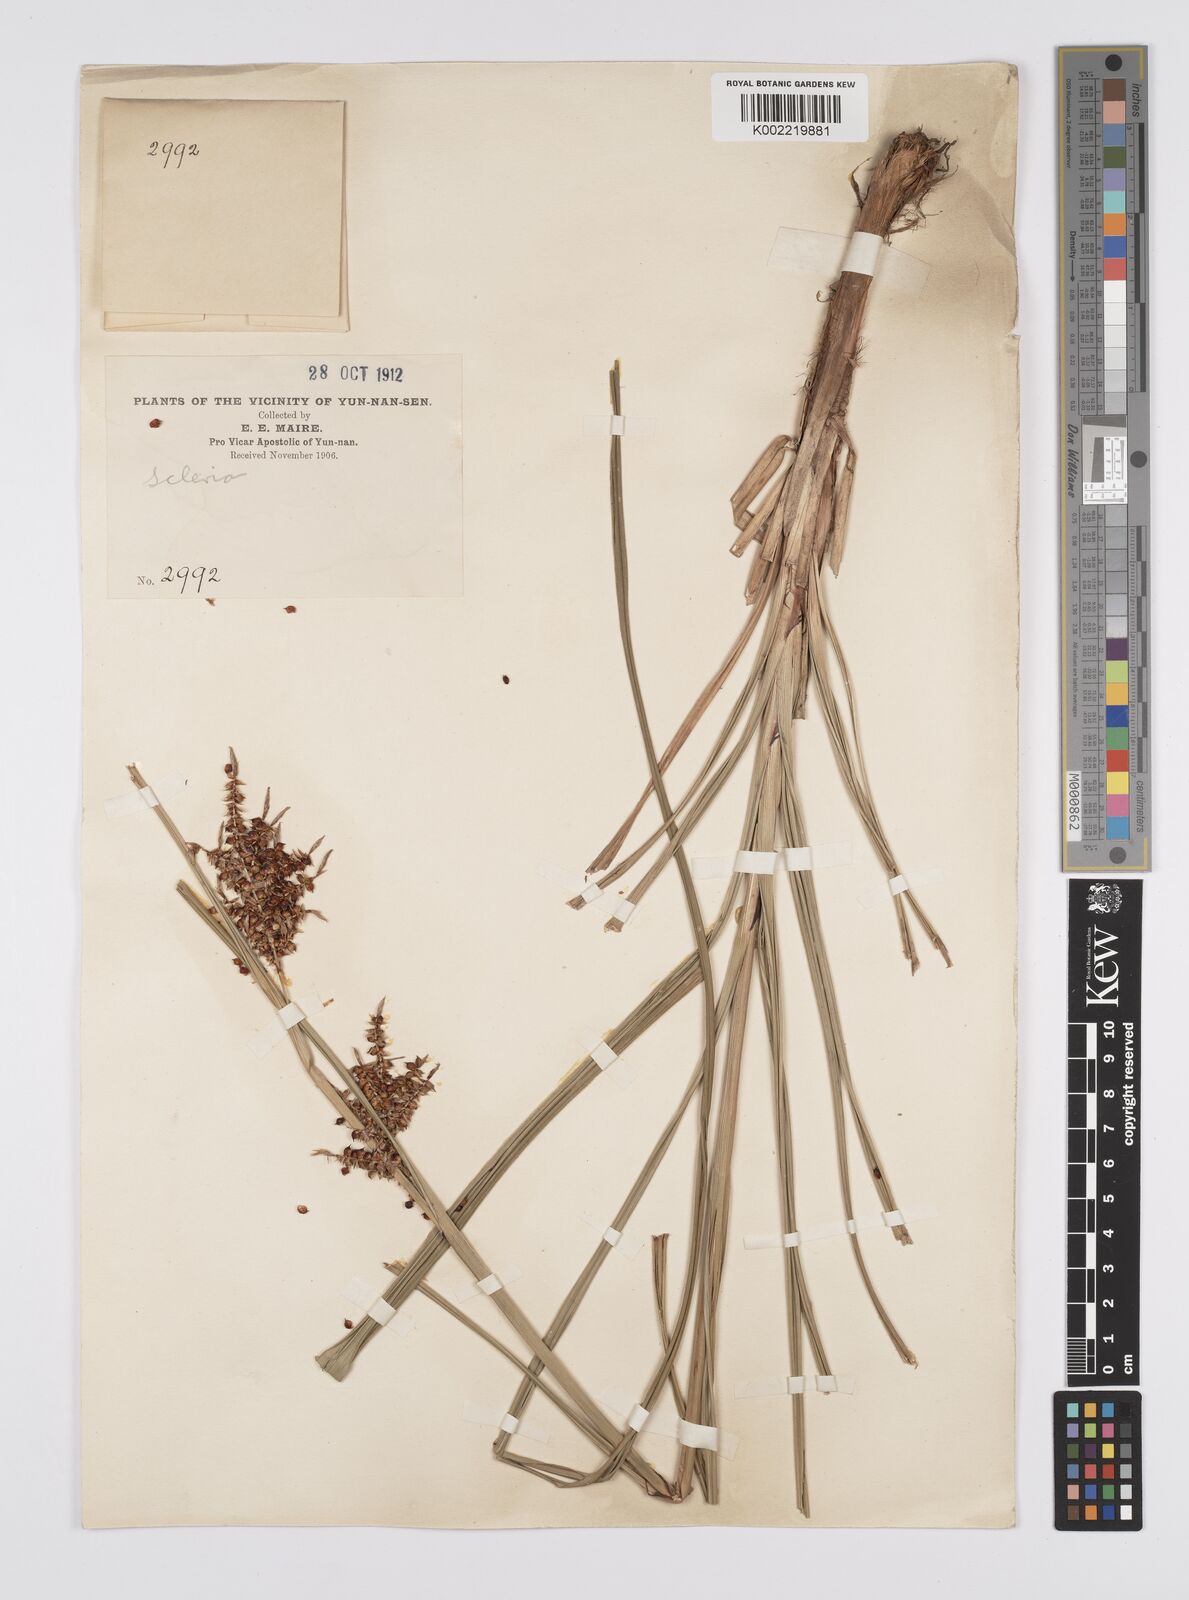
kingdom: Plantae
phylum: Tracheophyta
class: Liliopsida
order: Poales
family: Cyperaceae
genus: Carex
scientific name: Carex baccans
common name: Crimson seeded sedge
